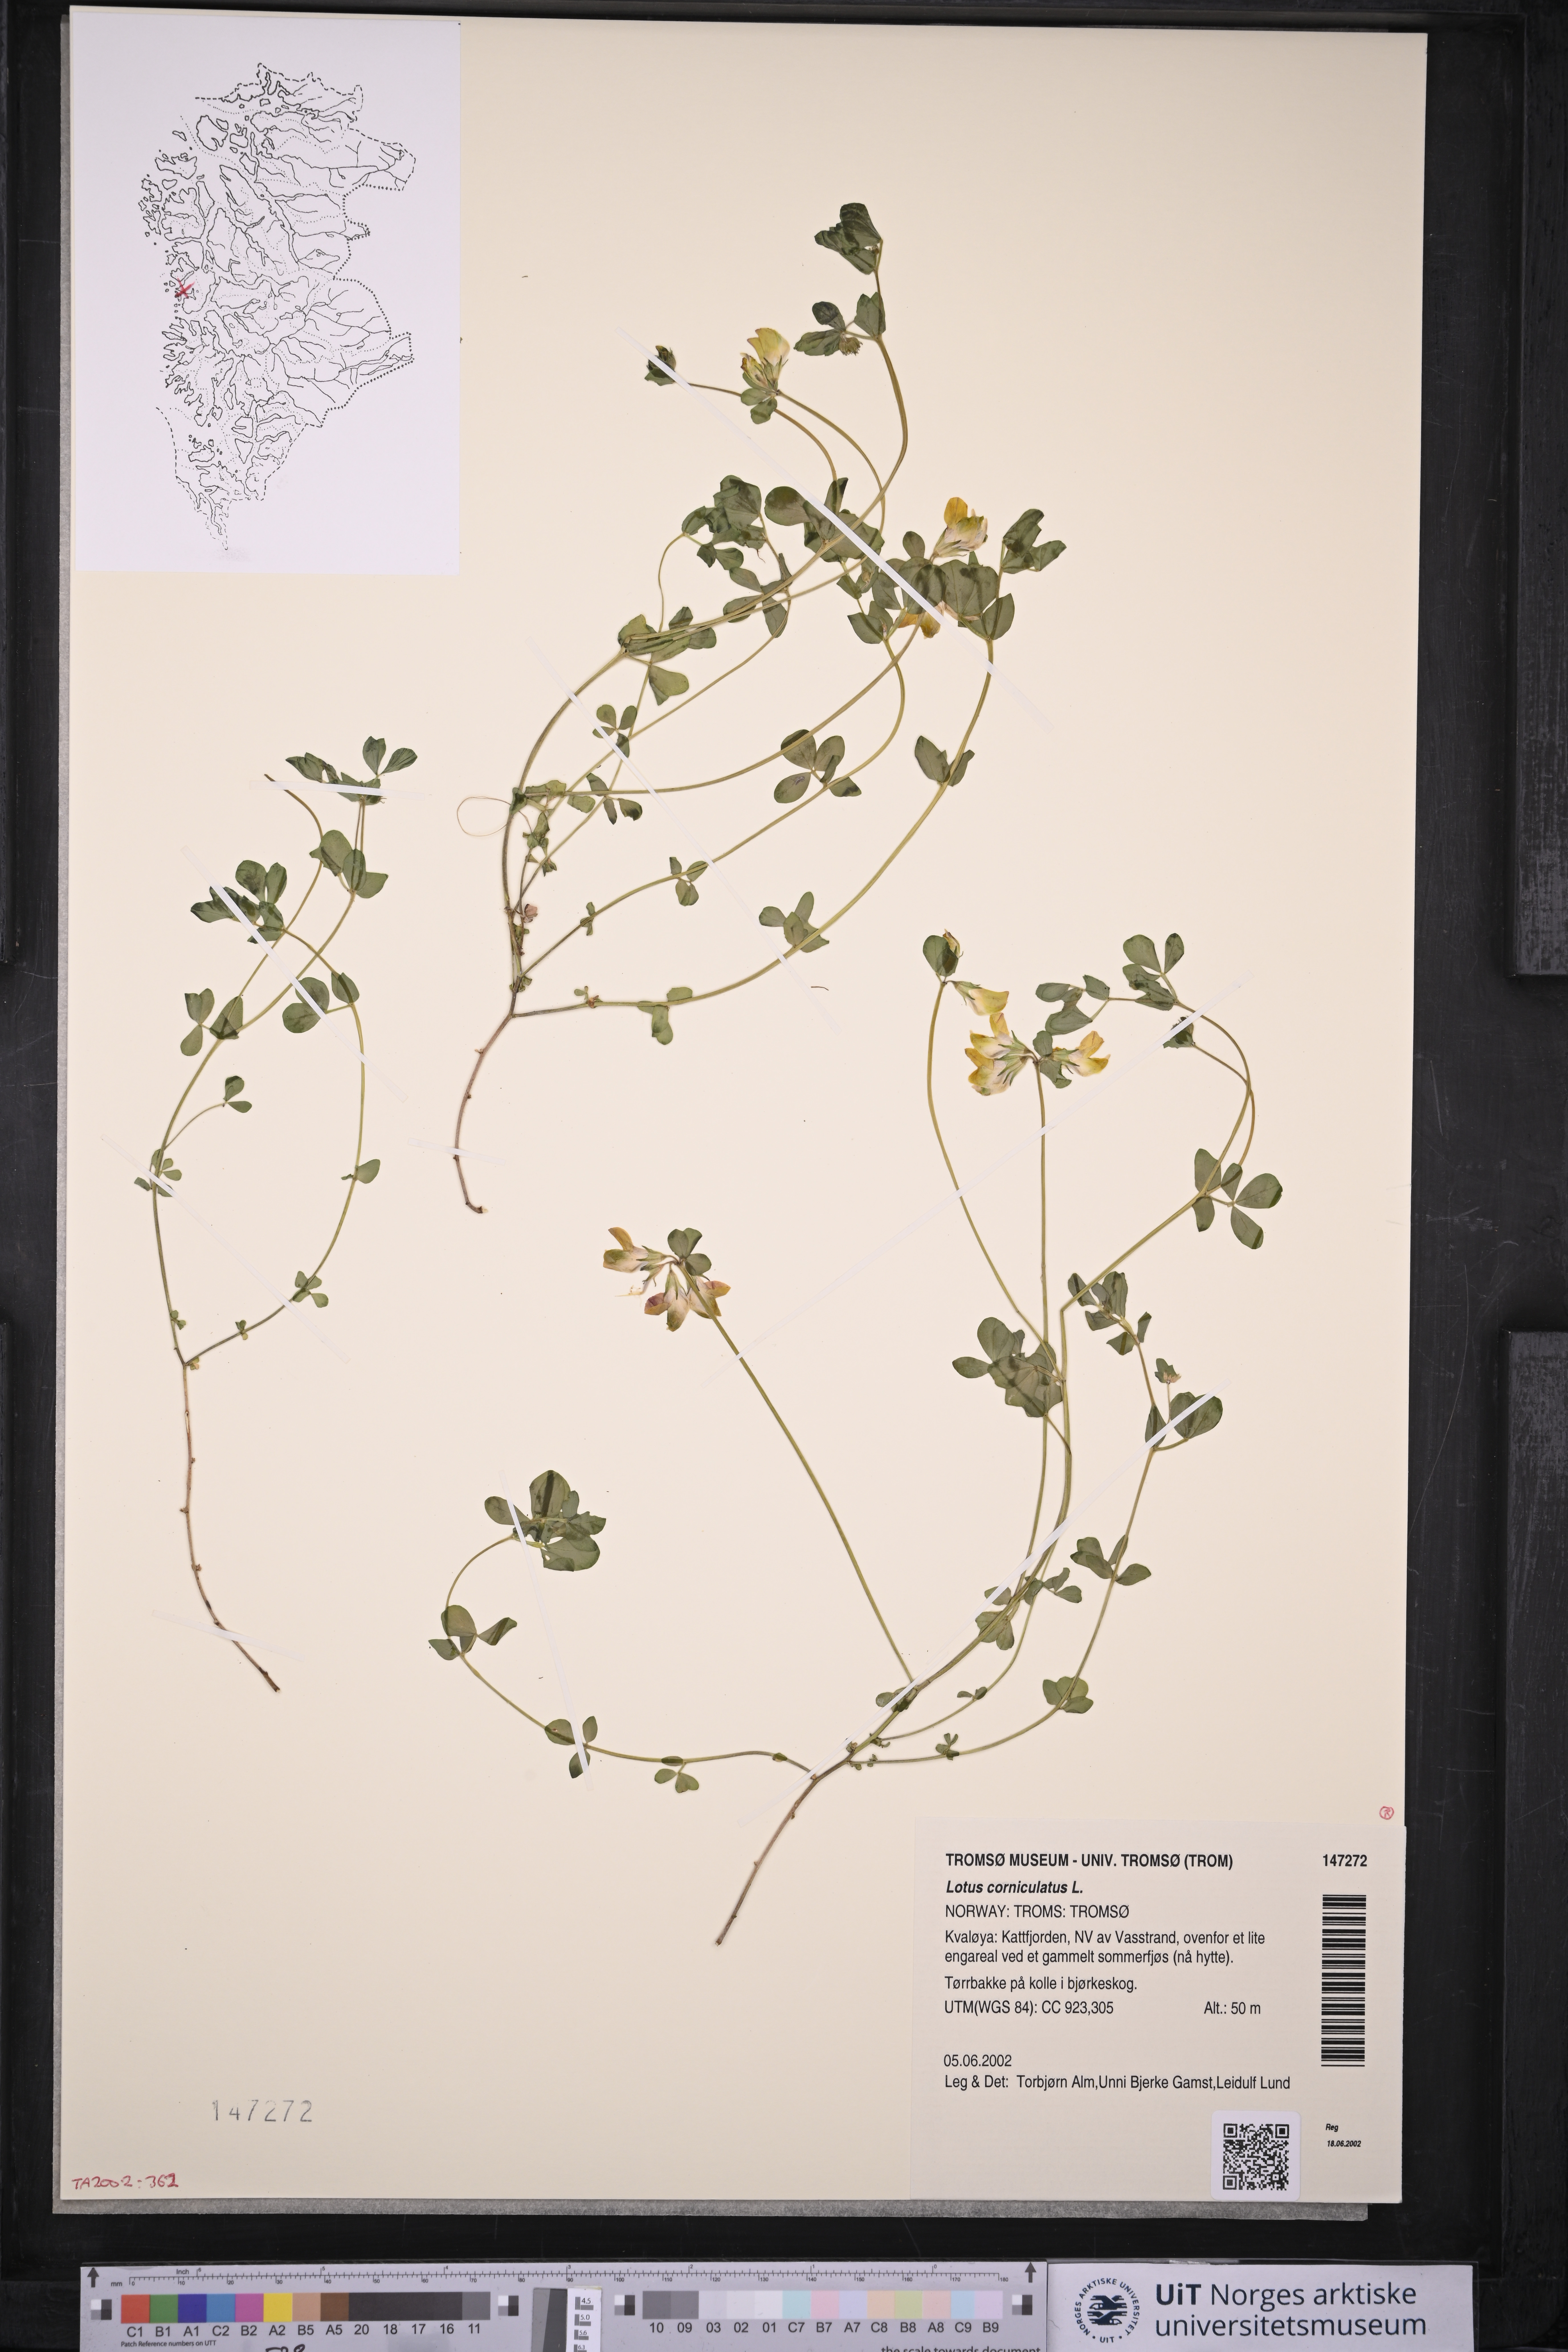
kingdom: Plantae
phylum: Tracheophyta
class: Magnoliopsida
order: Fabales
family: Fabaceae
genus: Lotus
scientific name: Lotus corniculatus
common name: Common bird's-foot-trefoil
